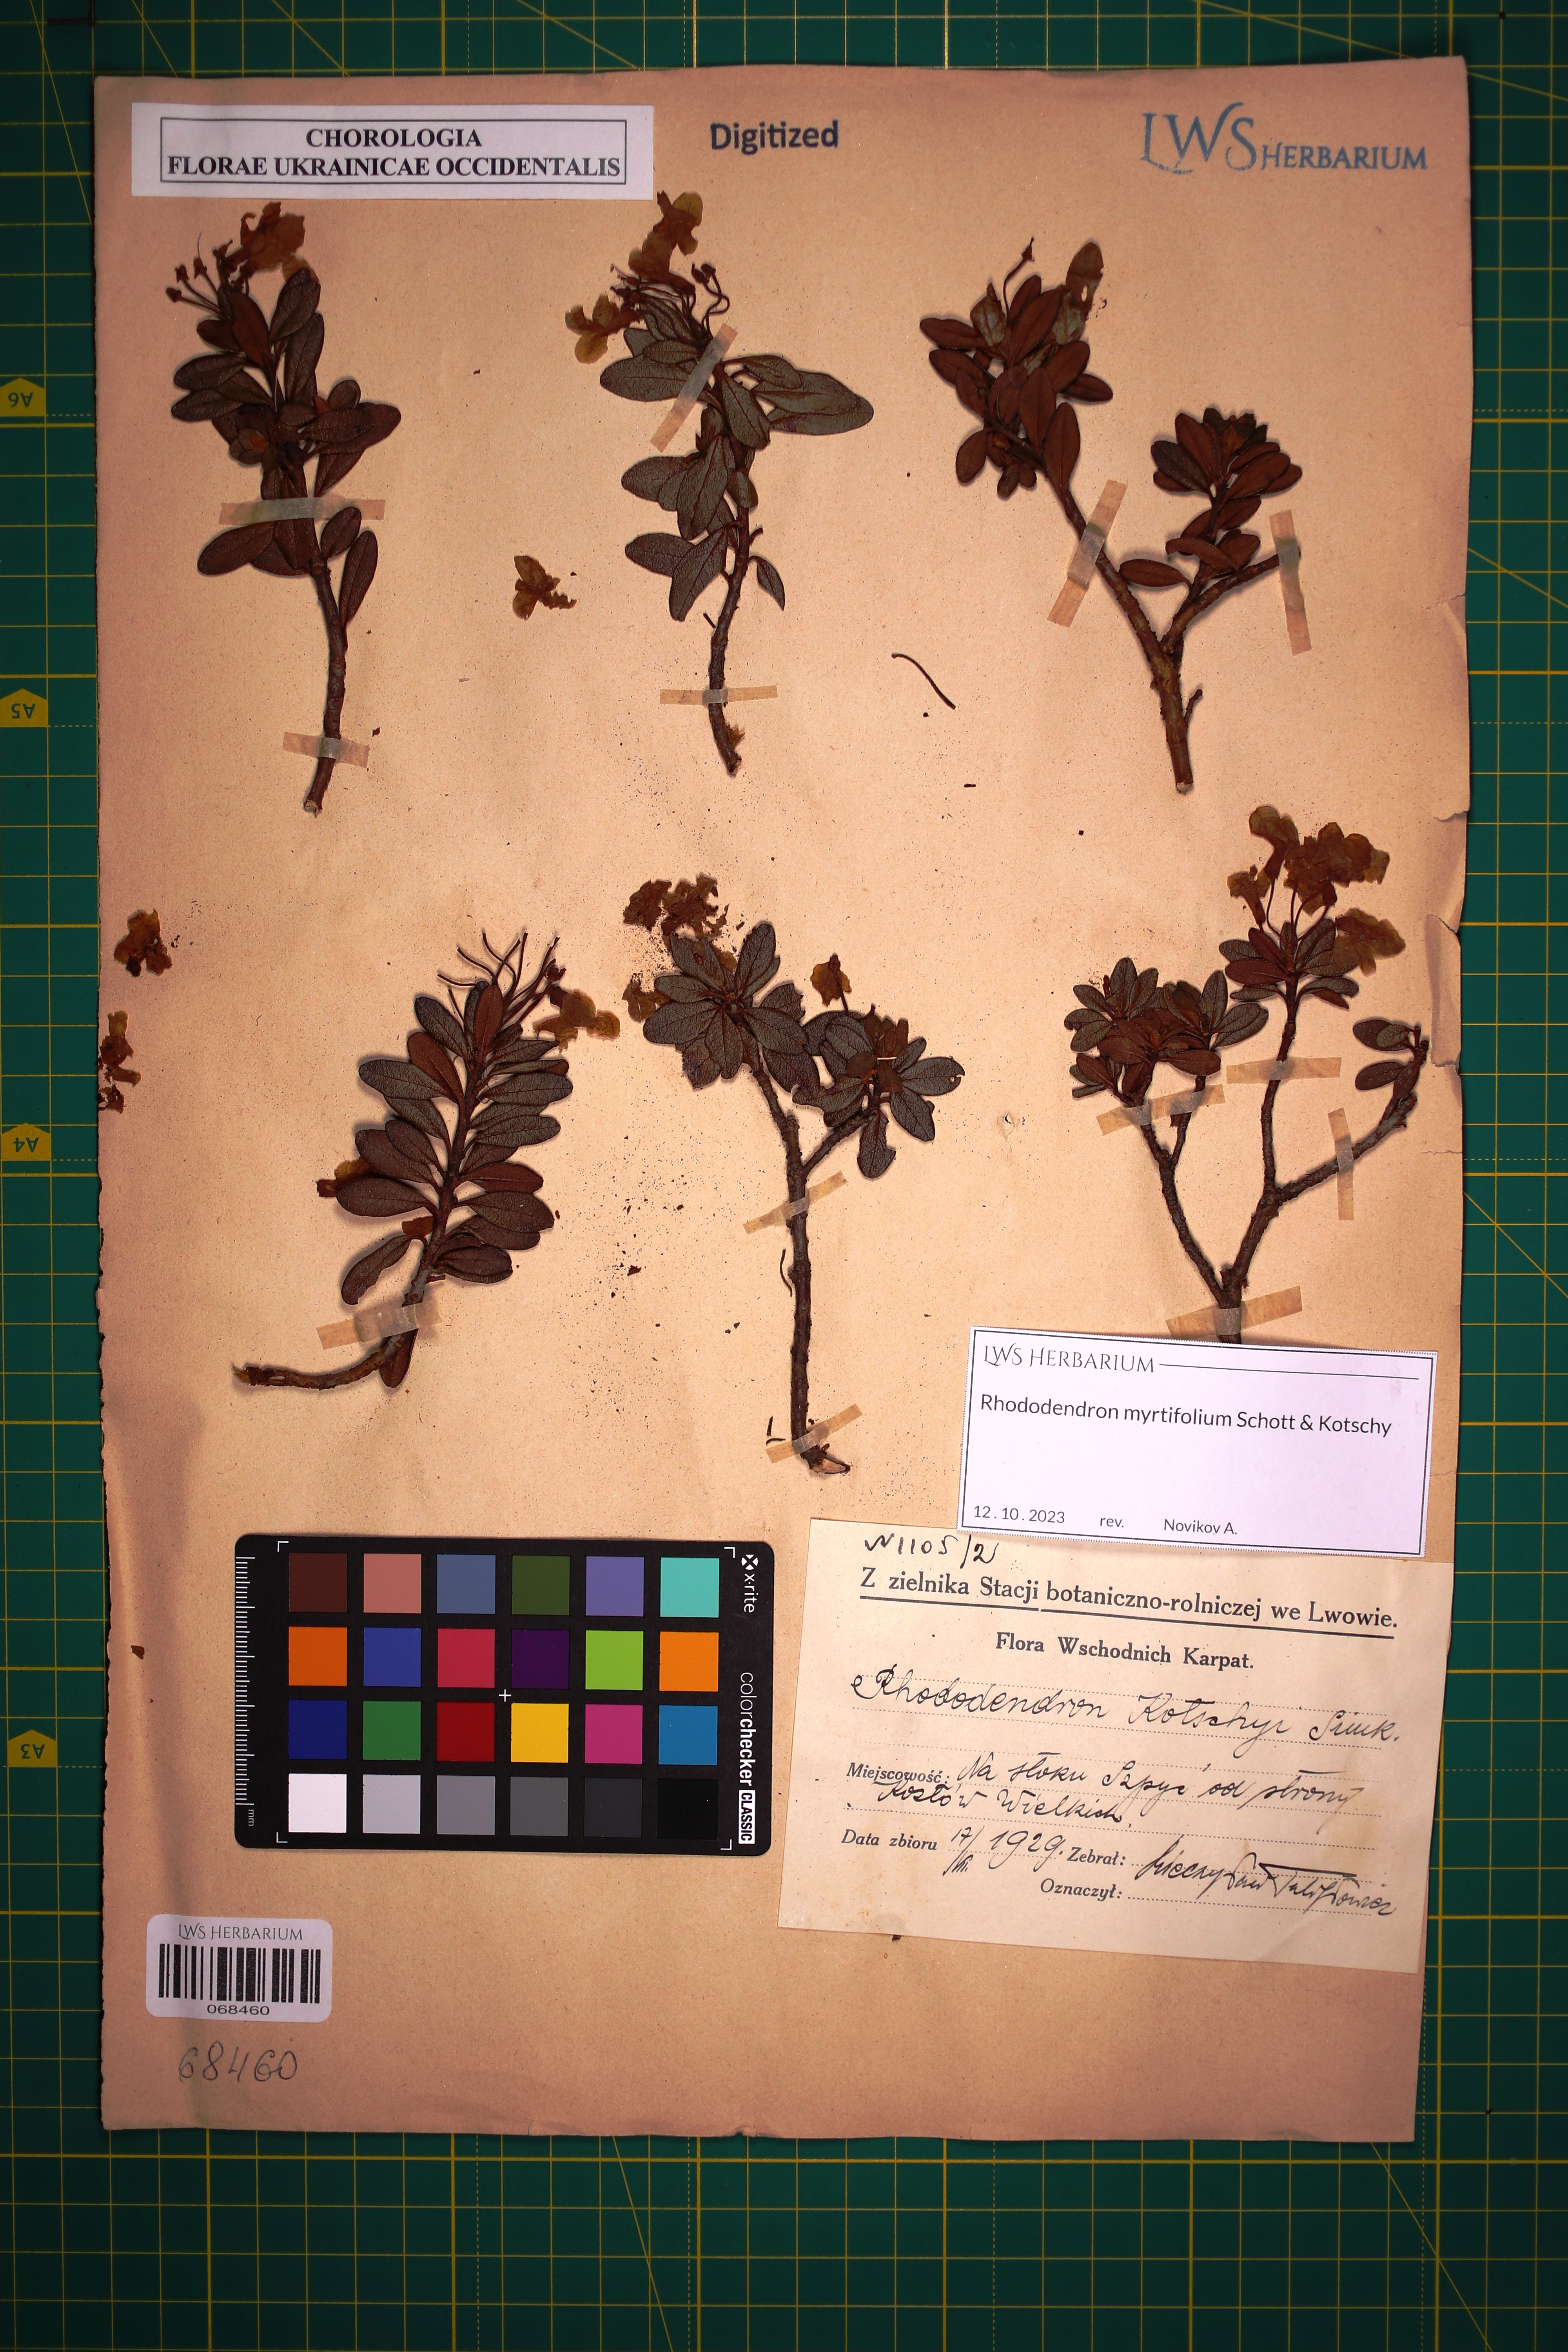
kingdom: Plantae
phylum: Tracheophyta
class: Magnoliopsida
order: Ericales
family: Ericaceae
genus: Rhododendron
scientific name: Rhododendron kotschyi
